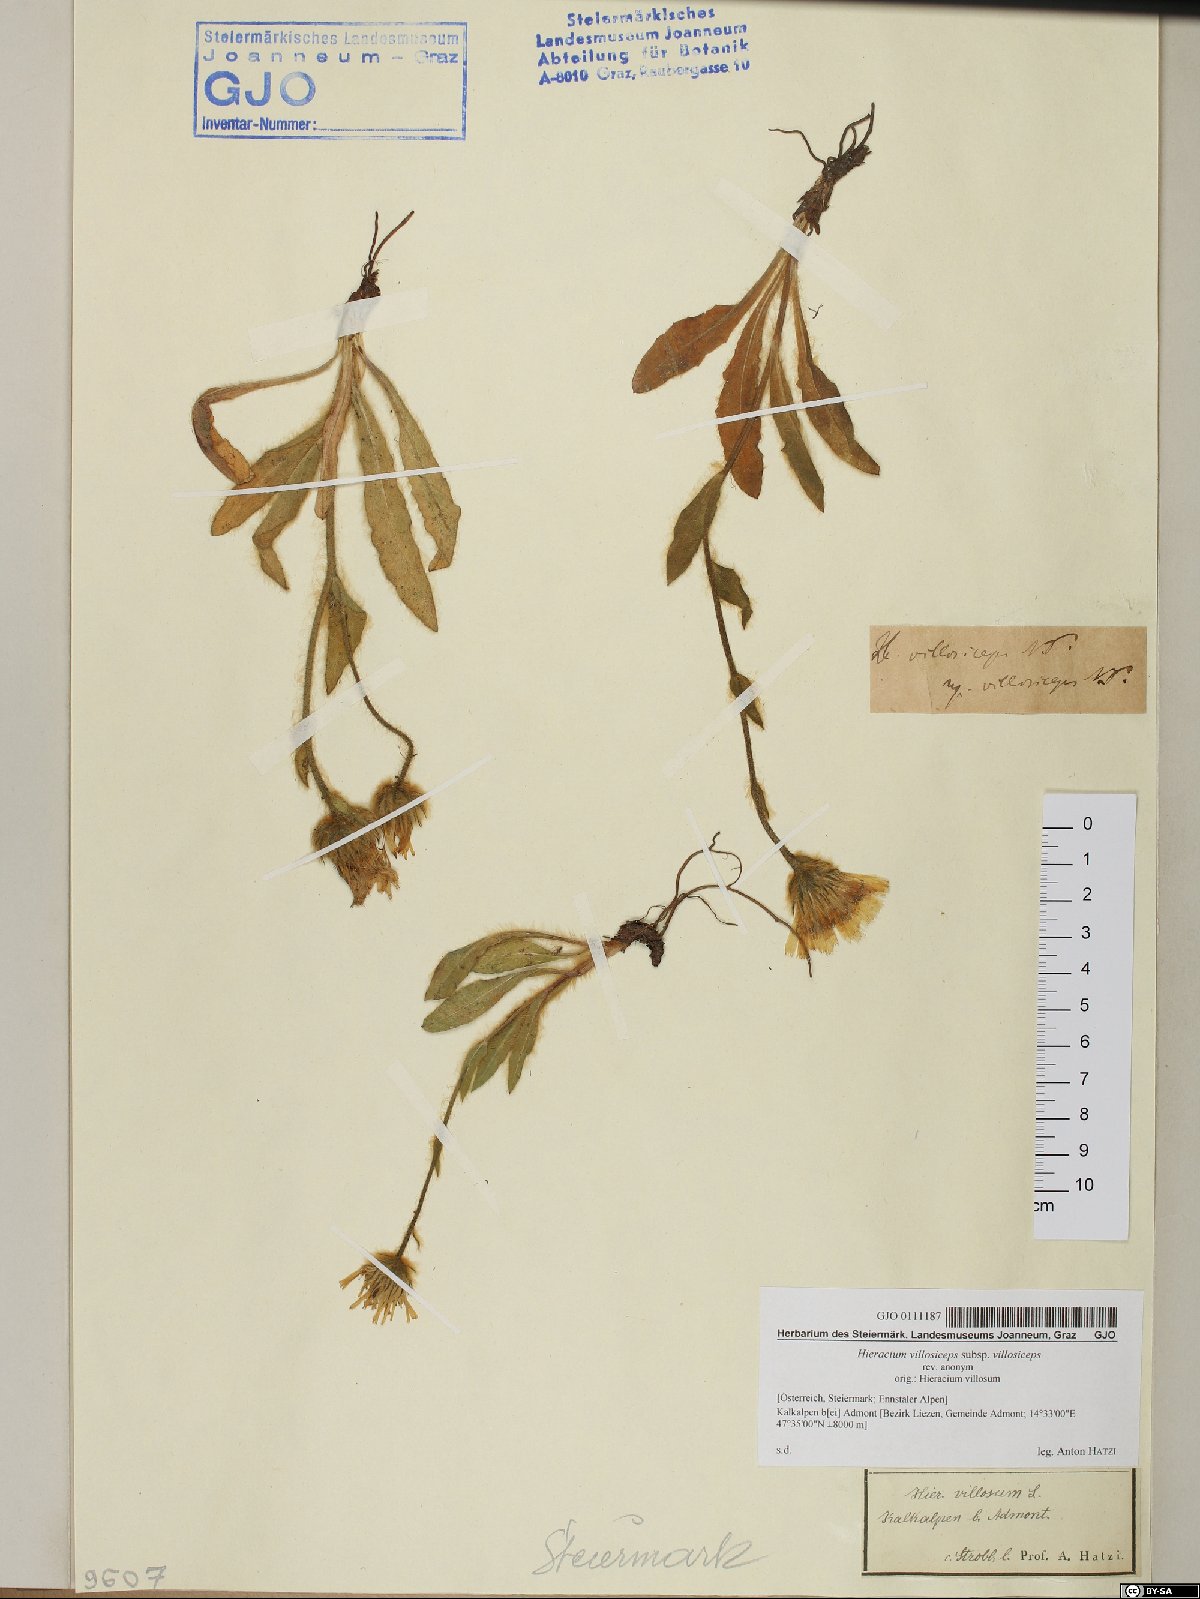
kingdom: Plantae
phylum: Tracheophyta
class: Magnoliopsida
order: Asterales
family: Asteraceae
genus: Hieracium
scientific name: Hieracium pilosum
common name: Fimbriate-pitted hawkweed
